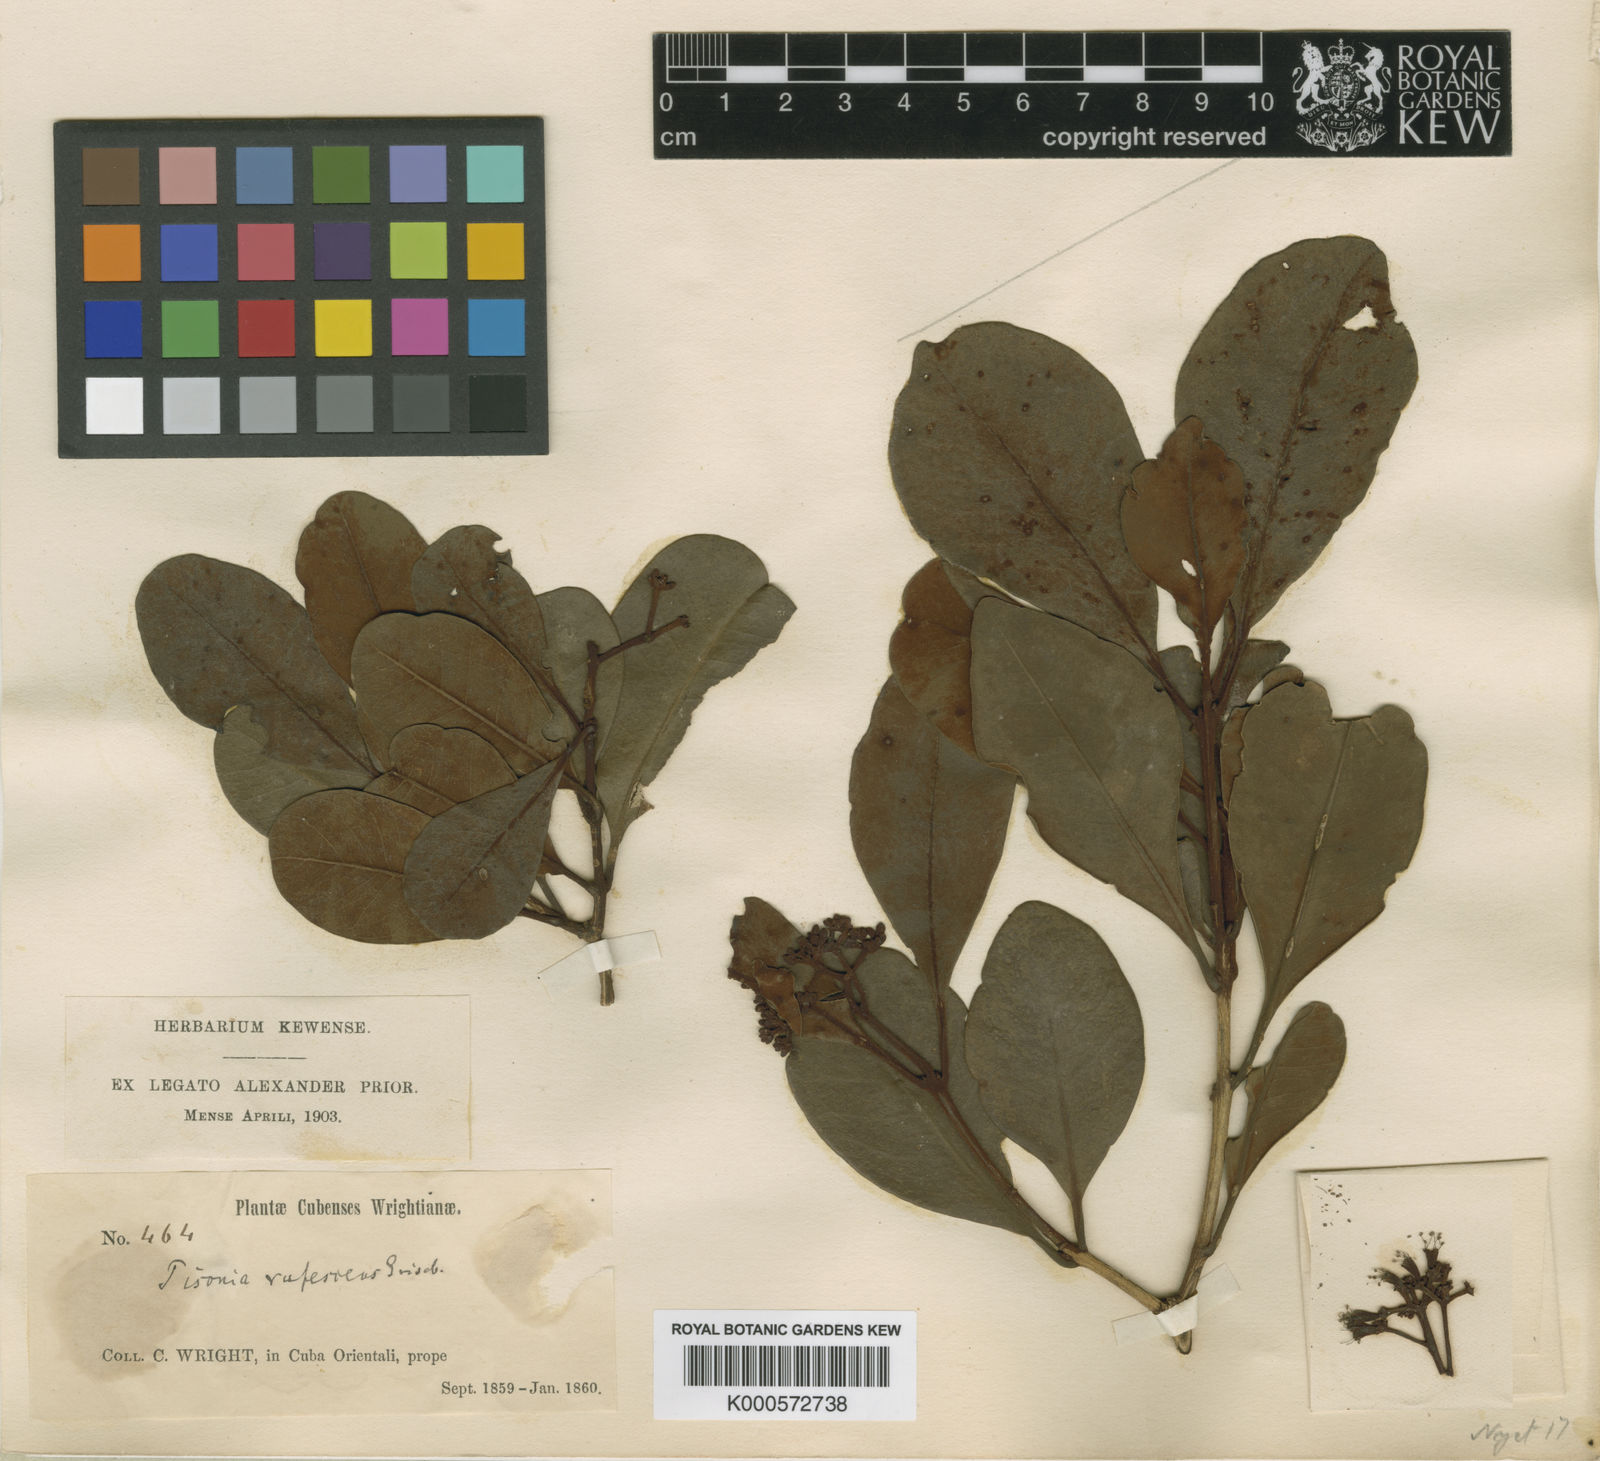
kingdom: Plantae
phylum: Tracheophyta
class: Magnoliopsida
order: Caryophyllales
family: Nyctaginaceae
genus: Guapira
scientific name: Guapira rufescens
